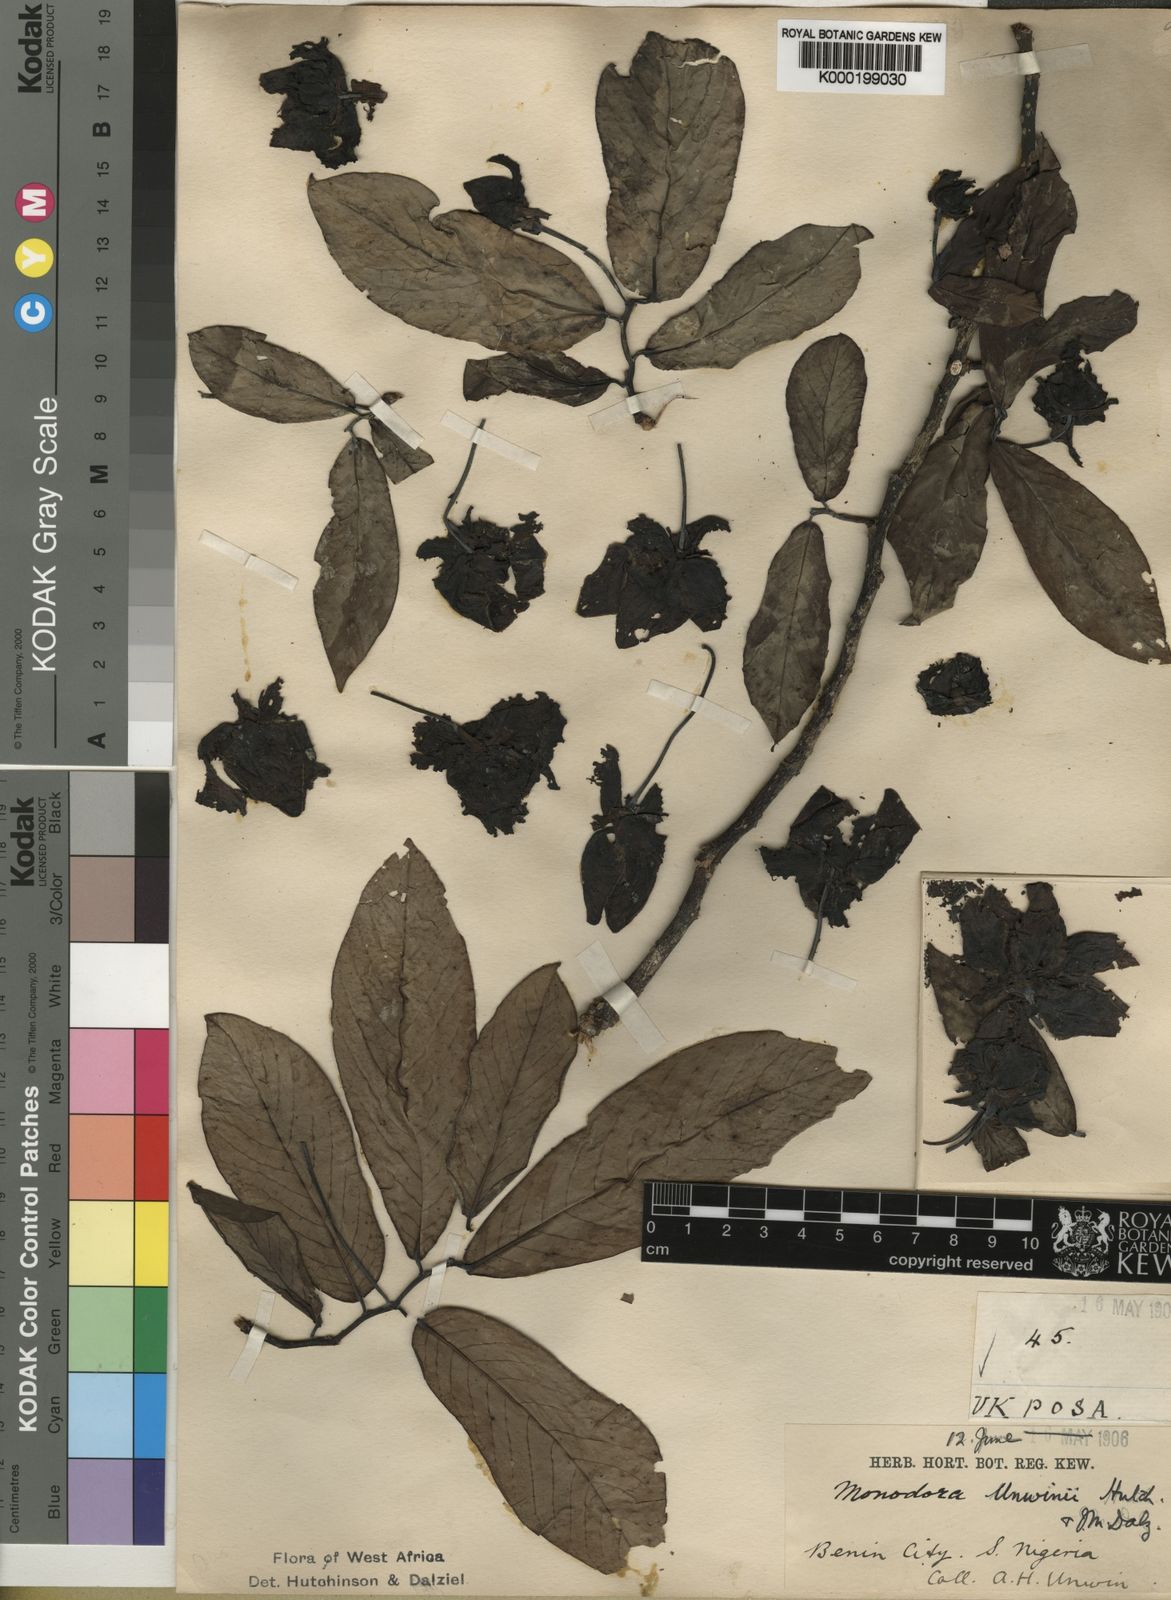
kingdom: Plantae
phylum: Tracheophyta
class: Magnoliopsida
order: Magnoliales
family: Annonaceae
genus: Monodora
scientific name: Monodora myristica
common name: African nutmeg
